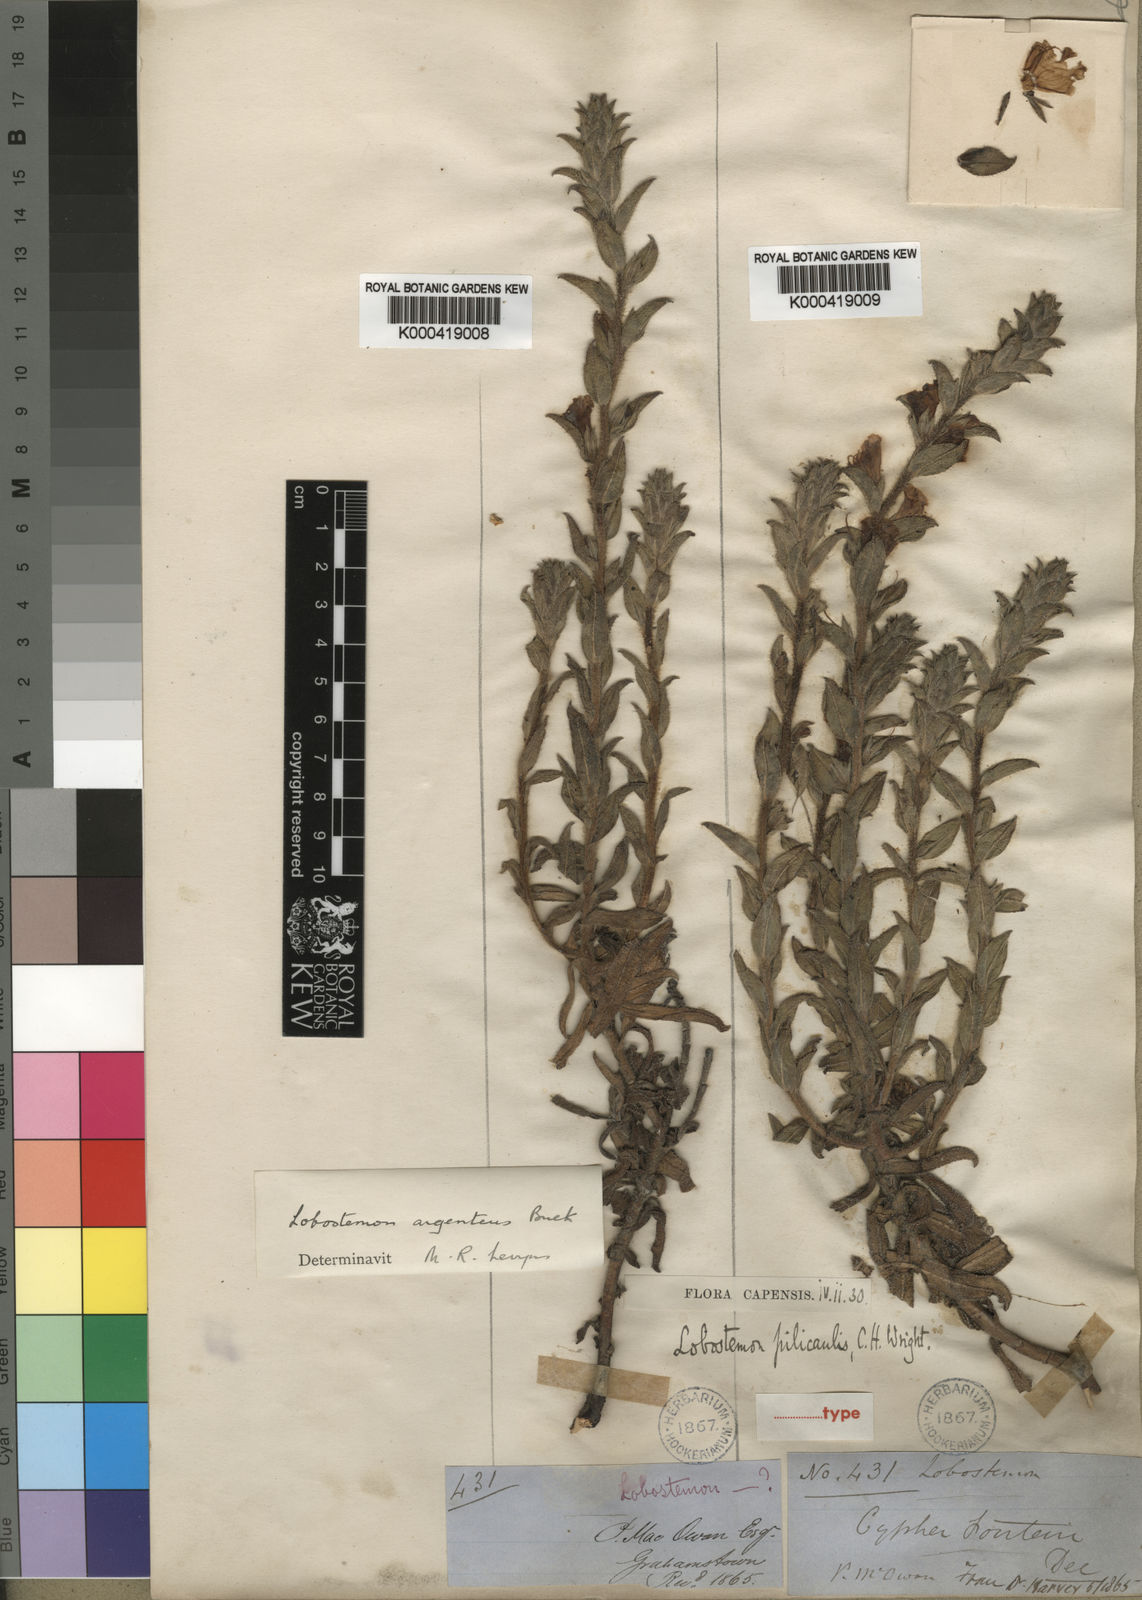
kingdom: Plantae
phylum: Tracheophyta
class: Magnoliopsida
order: Boraginales
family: Boraginaceae
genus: Lobostemon
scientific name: Lobostemon argenteus
